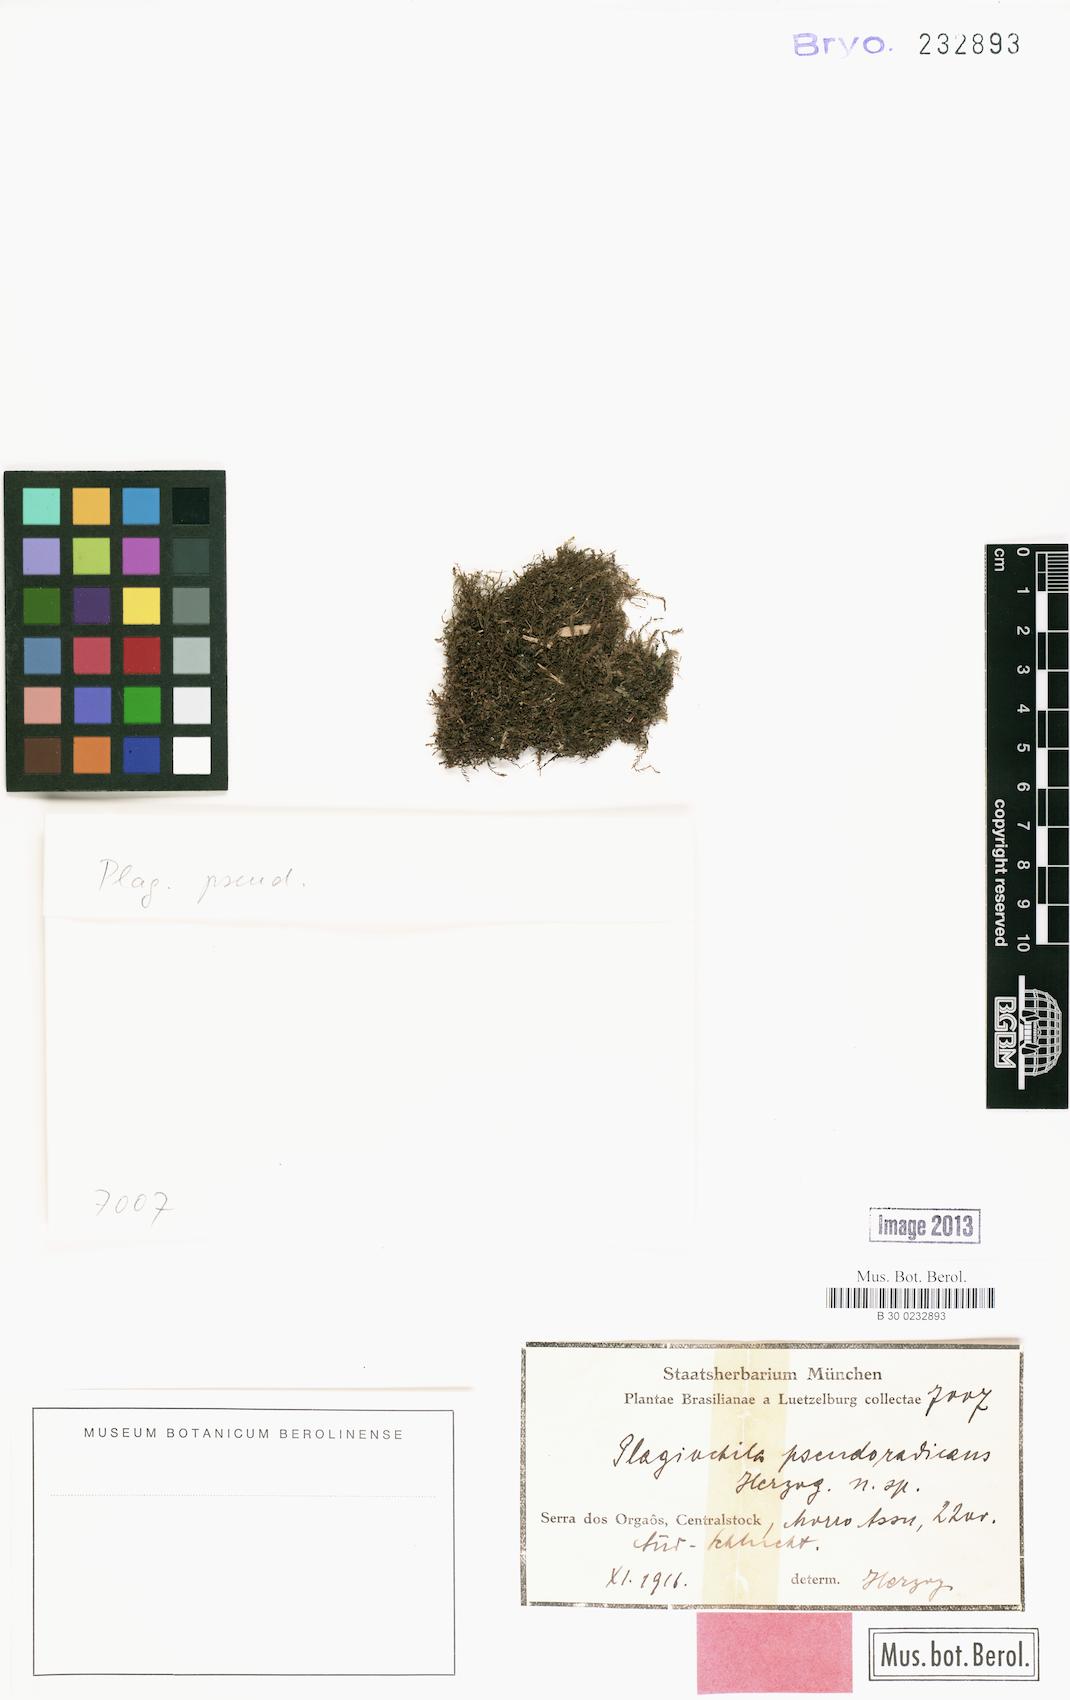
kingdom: Plantae
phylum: Marchantiophyta
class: Jungermanniopsida
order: Jungermanniales
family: Plagiochilaceae
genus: Plagiochila
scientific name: Plagiochila pseudoradicans
